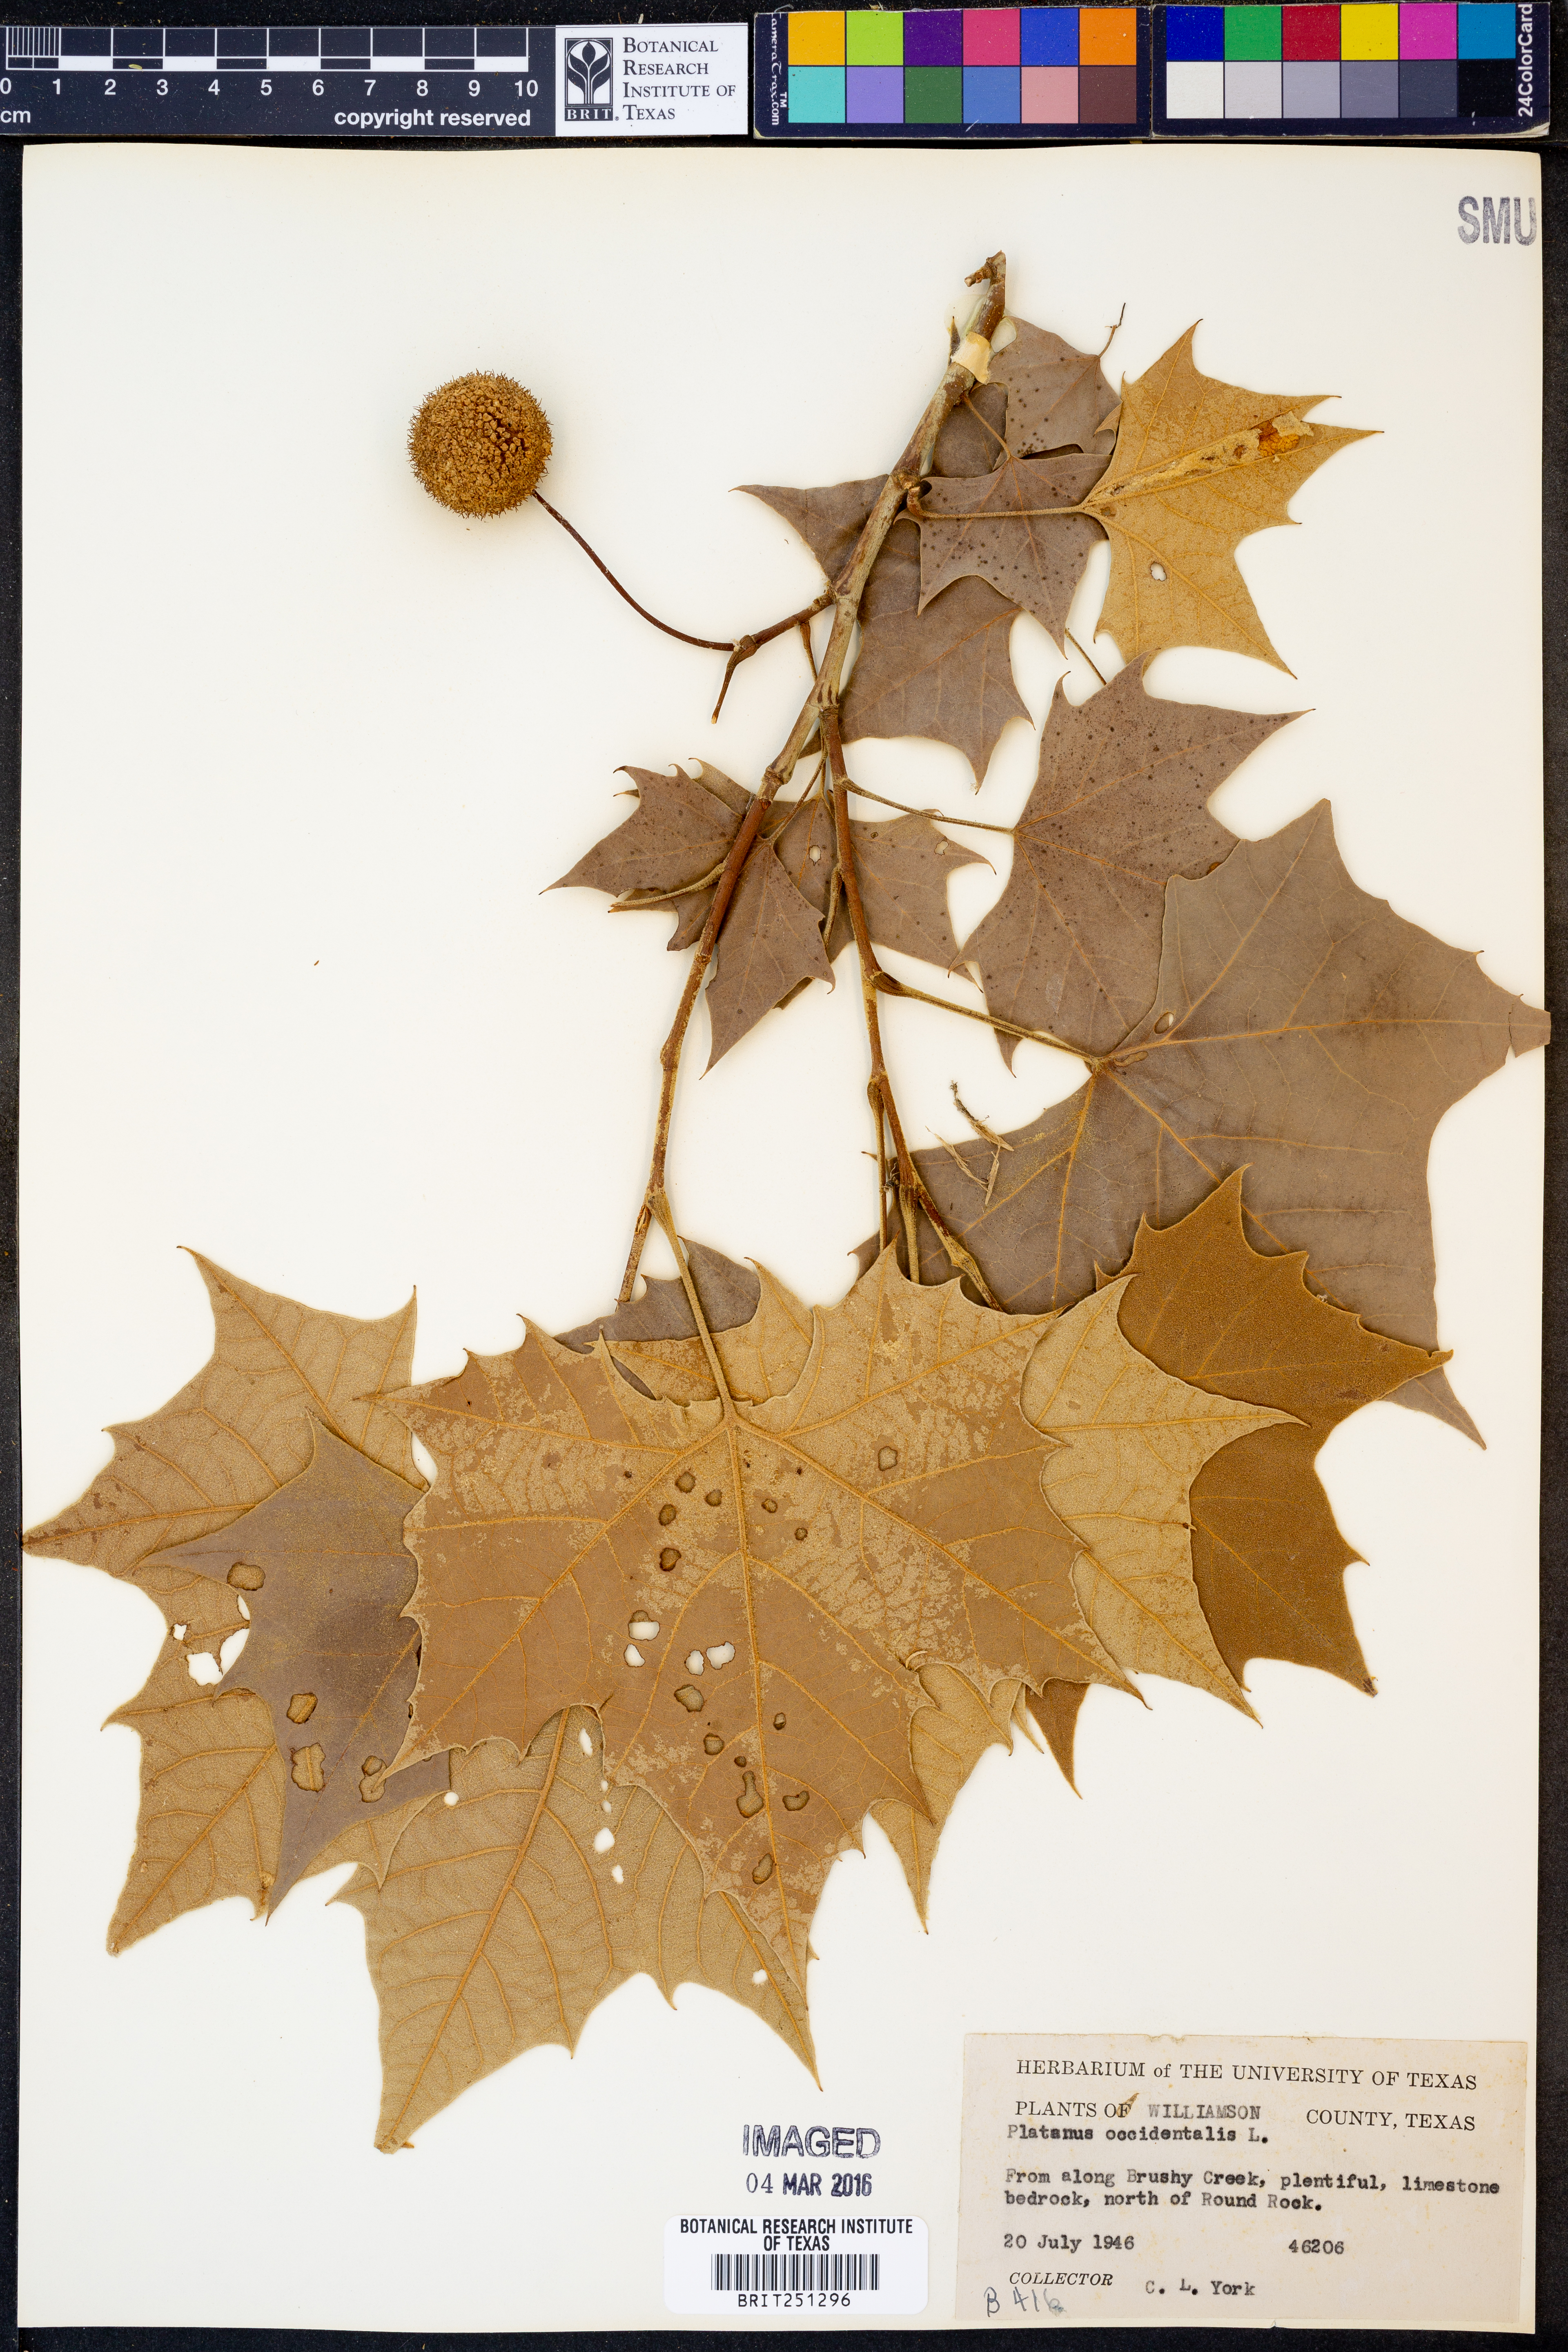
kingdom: Plantae
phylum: Tracheophyta
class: Magnoliopsida
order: Proteales
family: Platanaceae
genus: Platanus
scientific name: Platanus occidentalis
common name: American sycamore
